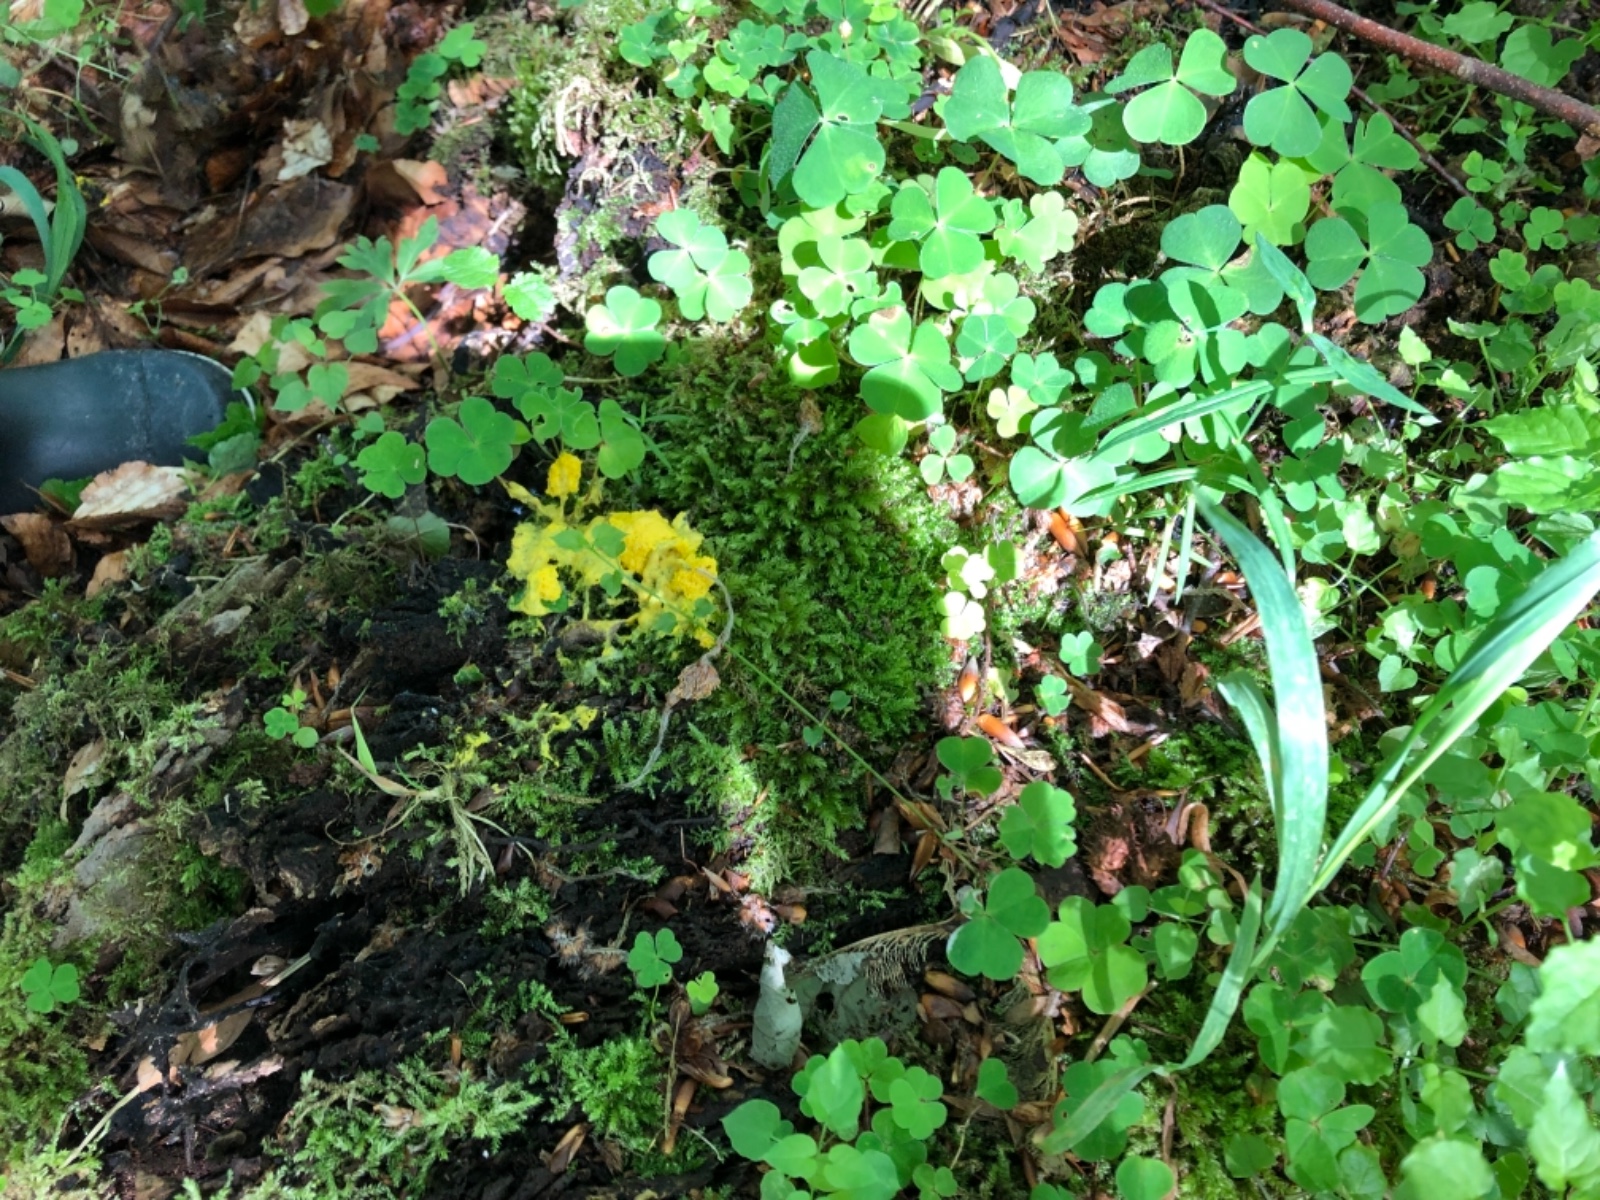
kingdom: Protozoa
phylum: Mycetozoa
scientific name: Mycetozoa
